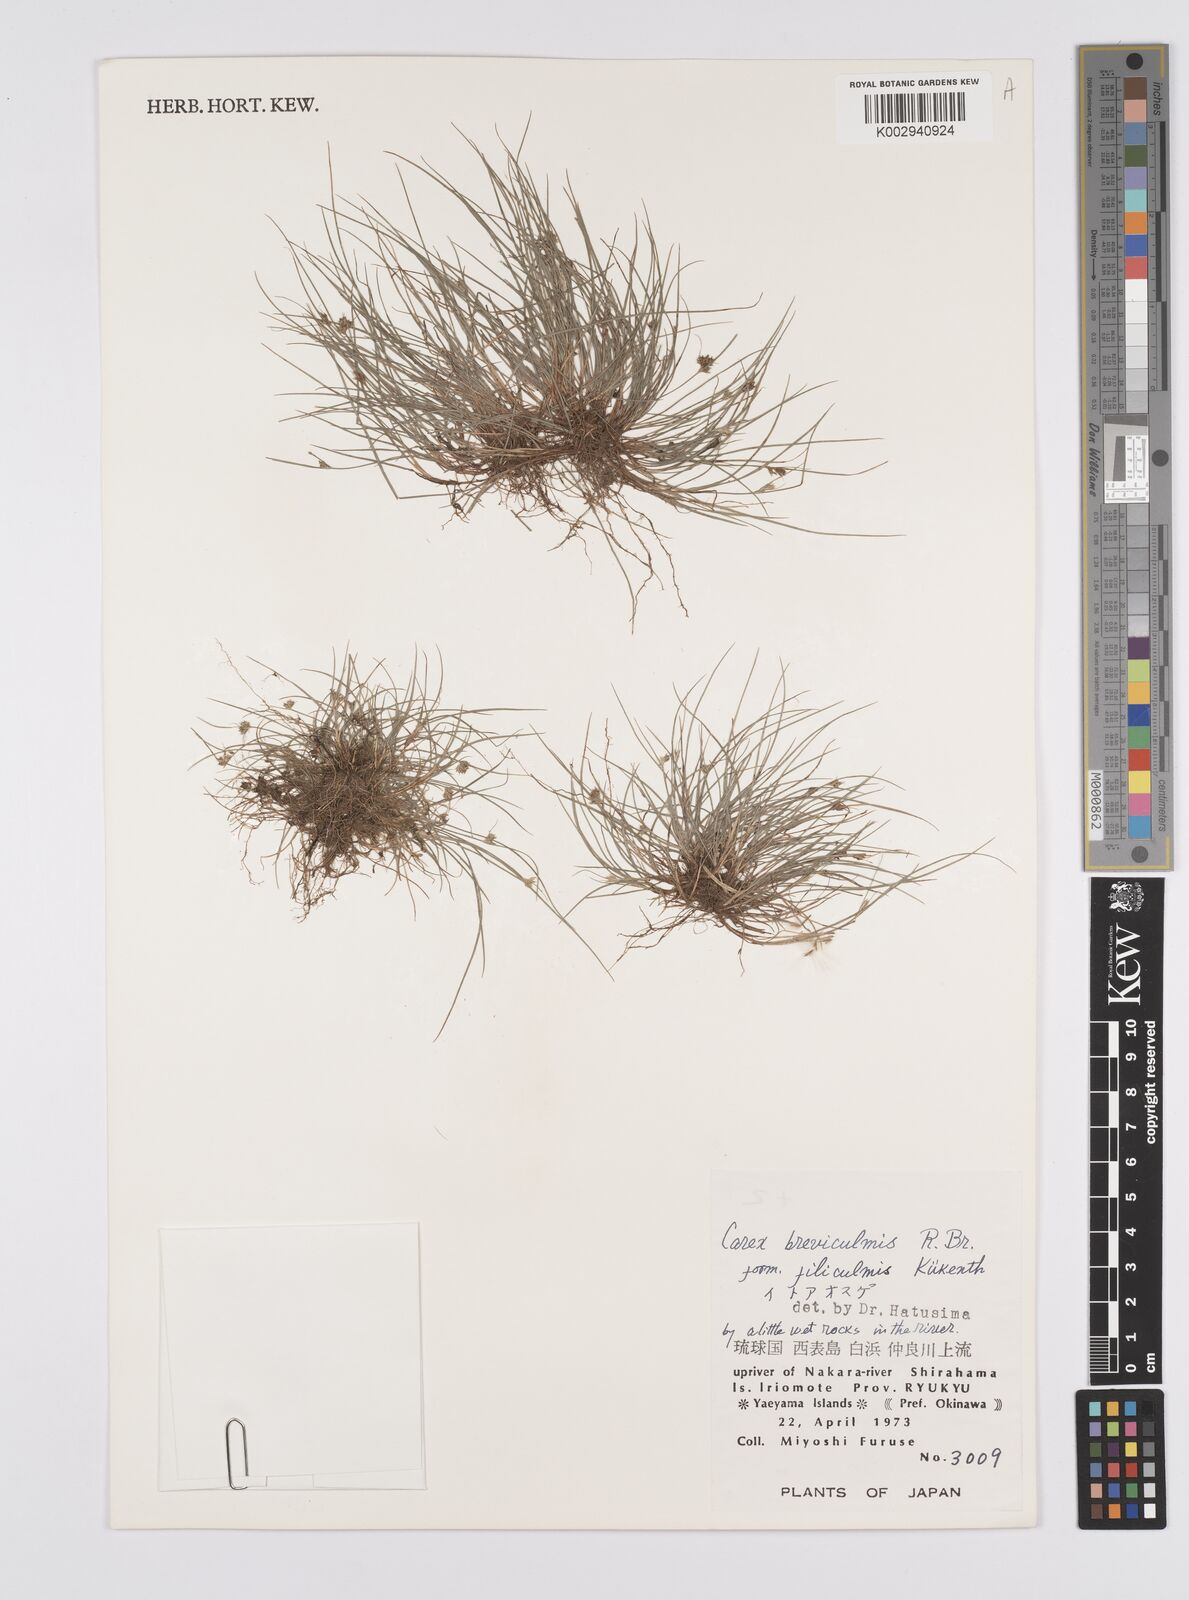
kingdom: Plantae
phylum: Tracheophyta
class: Liliopsida
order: Poales
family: Cyperaceae
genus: Carex
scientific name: Carex breviculmis
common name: Asian shortstem sedge
